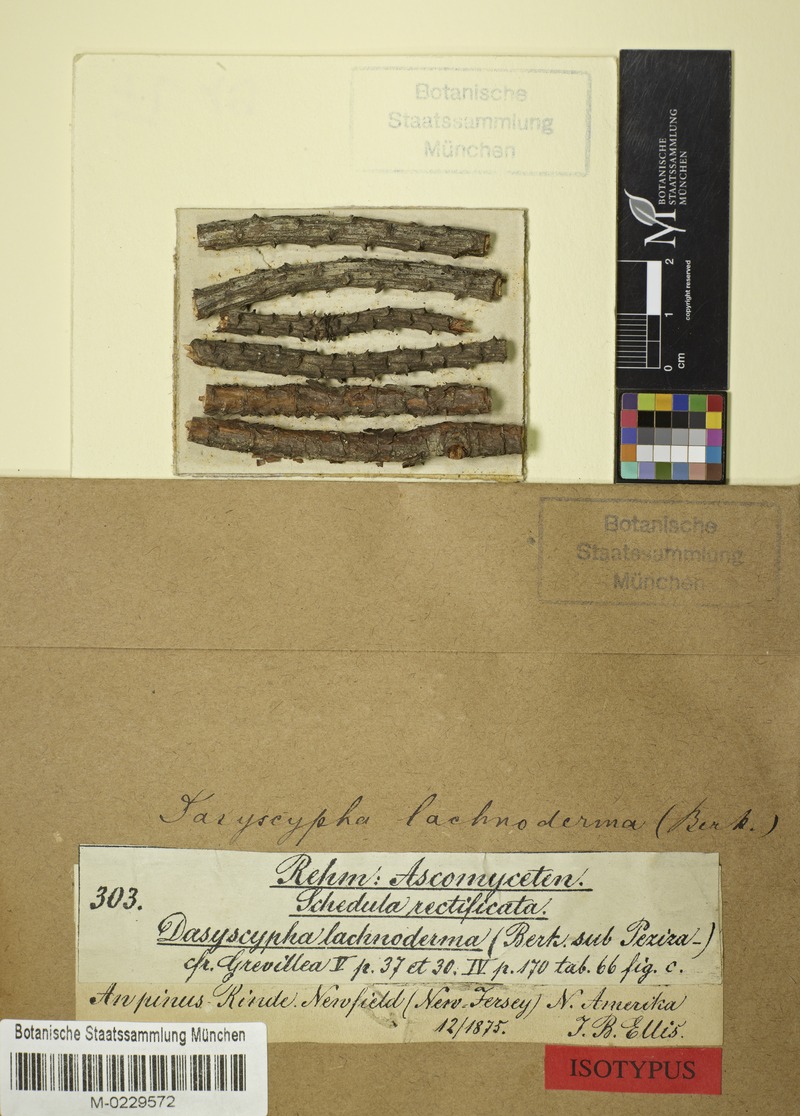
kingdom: Fungi
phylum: Ascomycota
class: Leotiomycetes
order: Helotiales
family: Lachnaceae
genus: Lachnellula
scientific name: Lachnellula ellisiana
